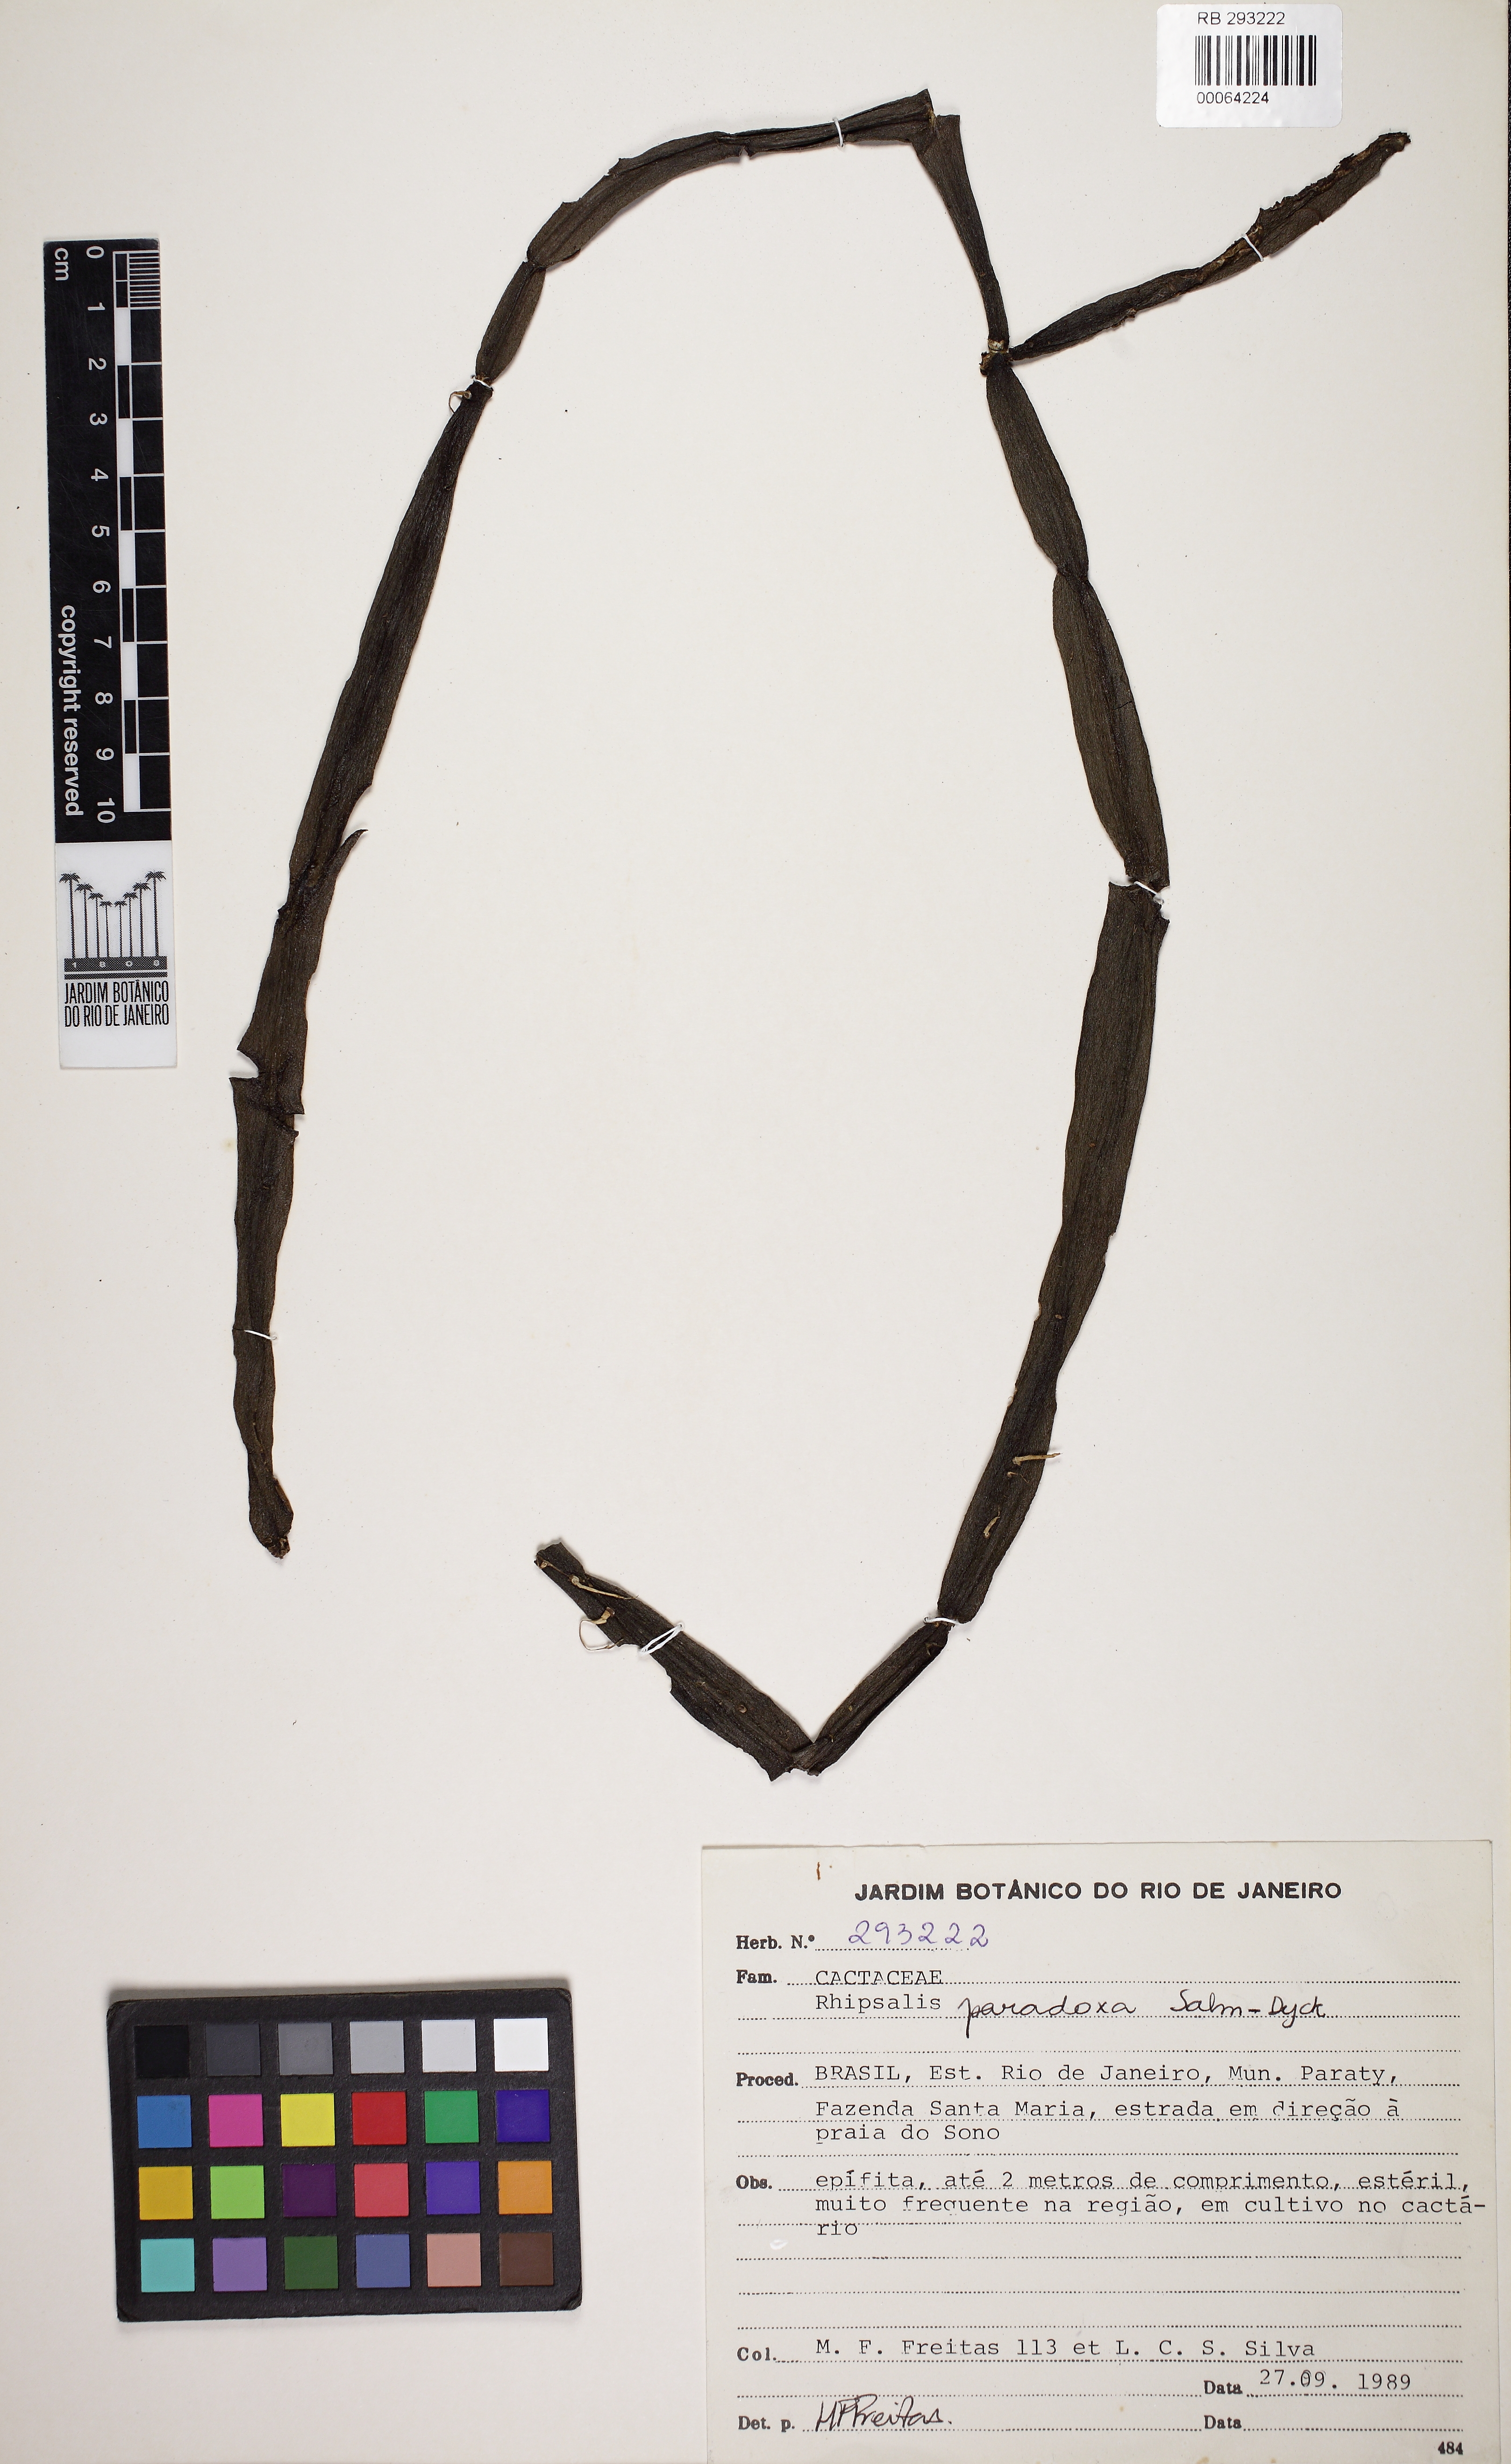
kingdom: Plantae
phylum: Tracheophyta
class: Magnoliopsida
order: Caryophyllales
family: Cactaceae
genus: Rhipsalis
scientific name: Rhipsalis paradoxa
